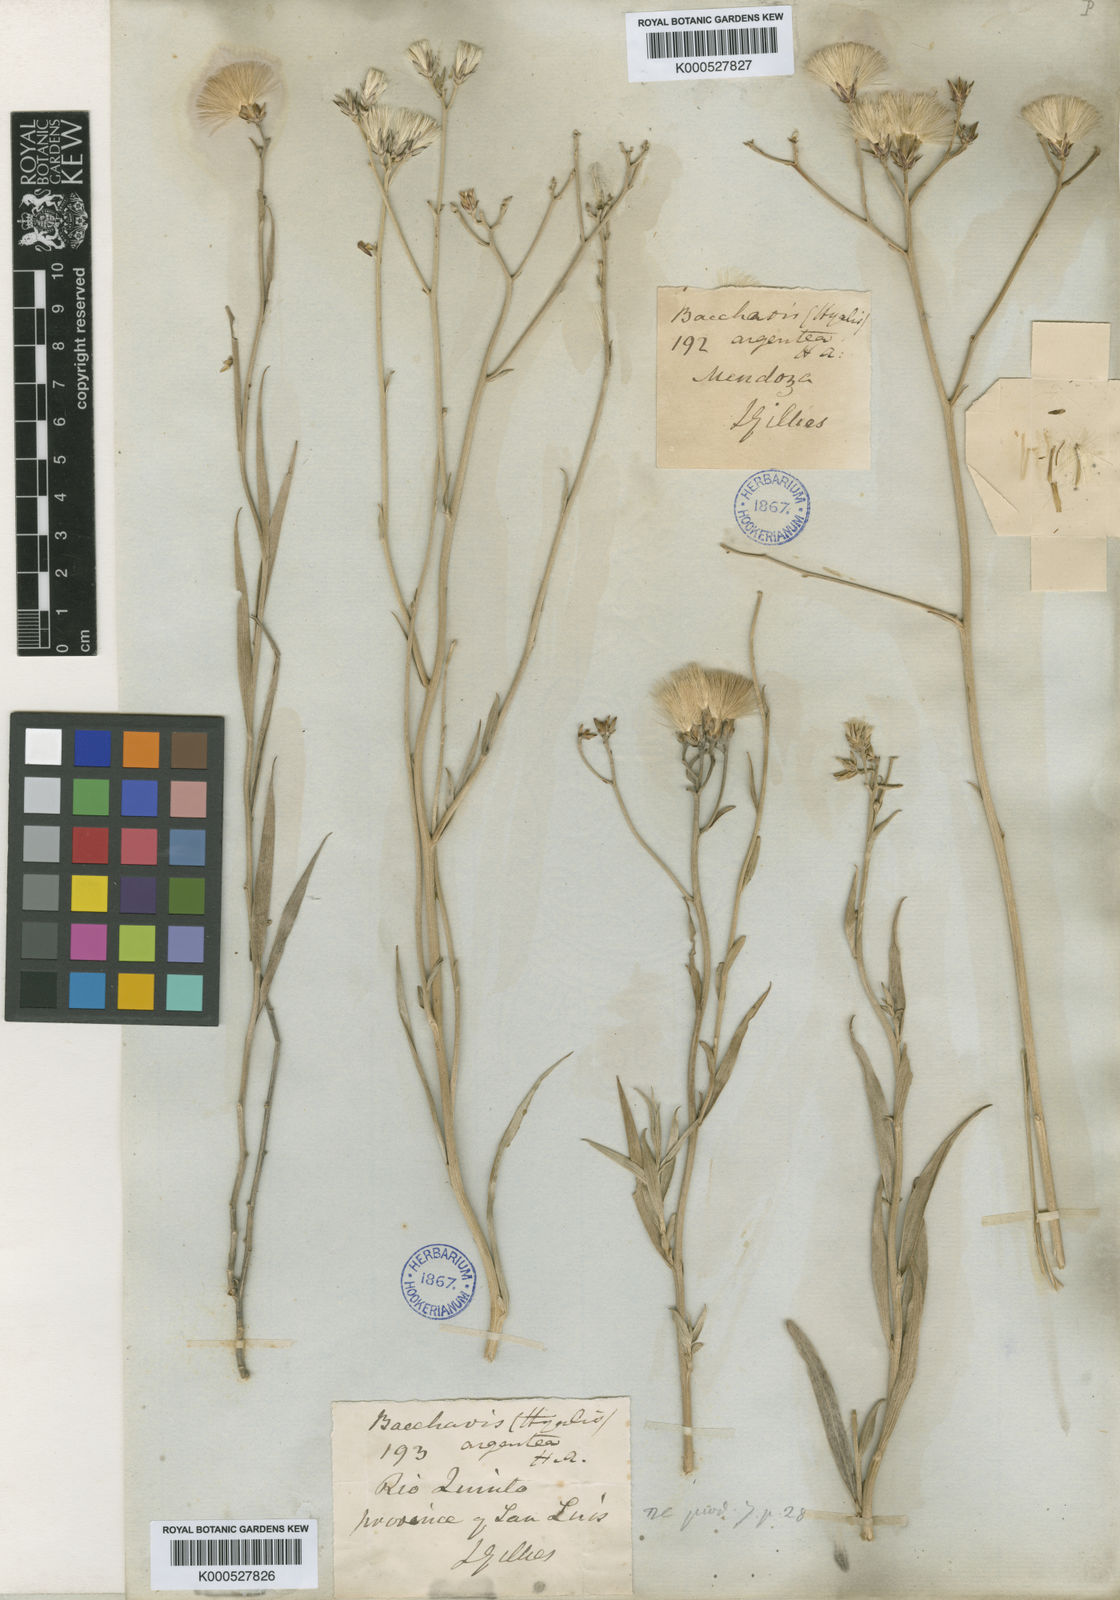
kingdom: Plantae
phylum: Tracheophyta
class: Magnoliopsida
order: Asterales
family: Asteraceae
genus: Hyalis
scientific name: Hyalis argentea
